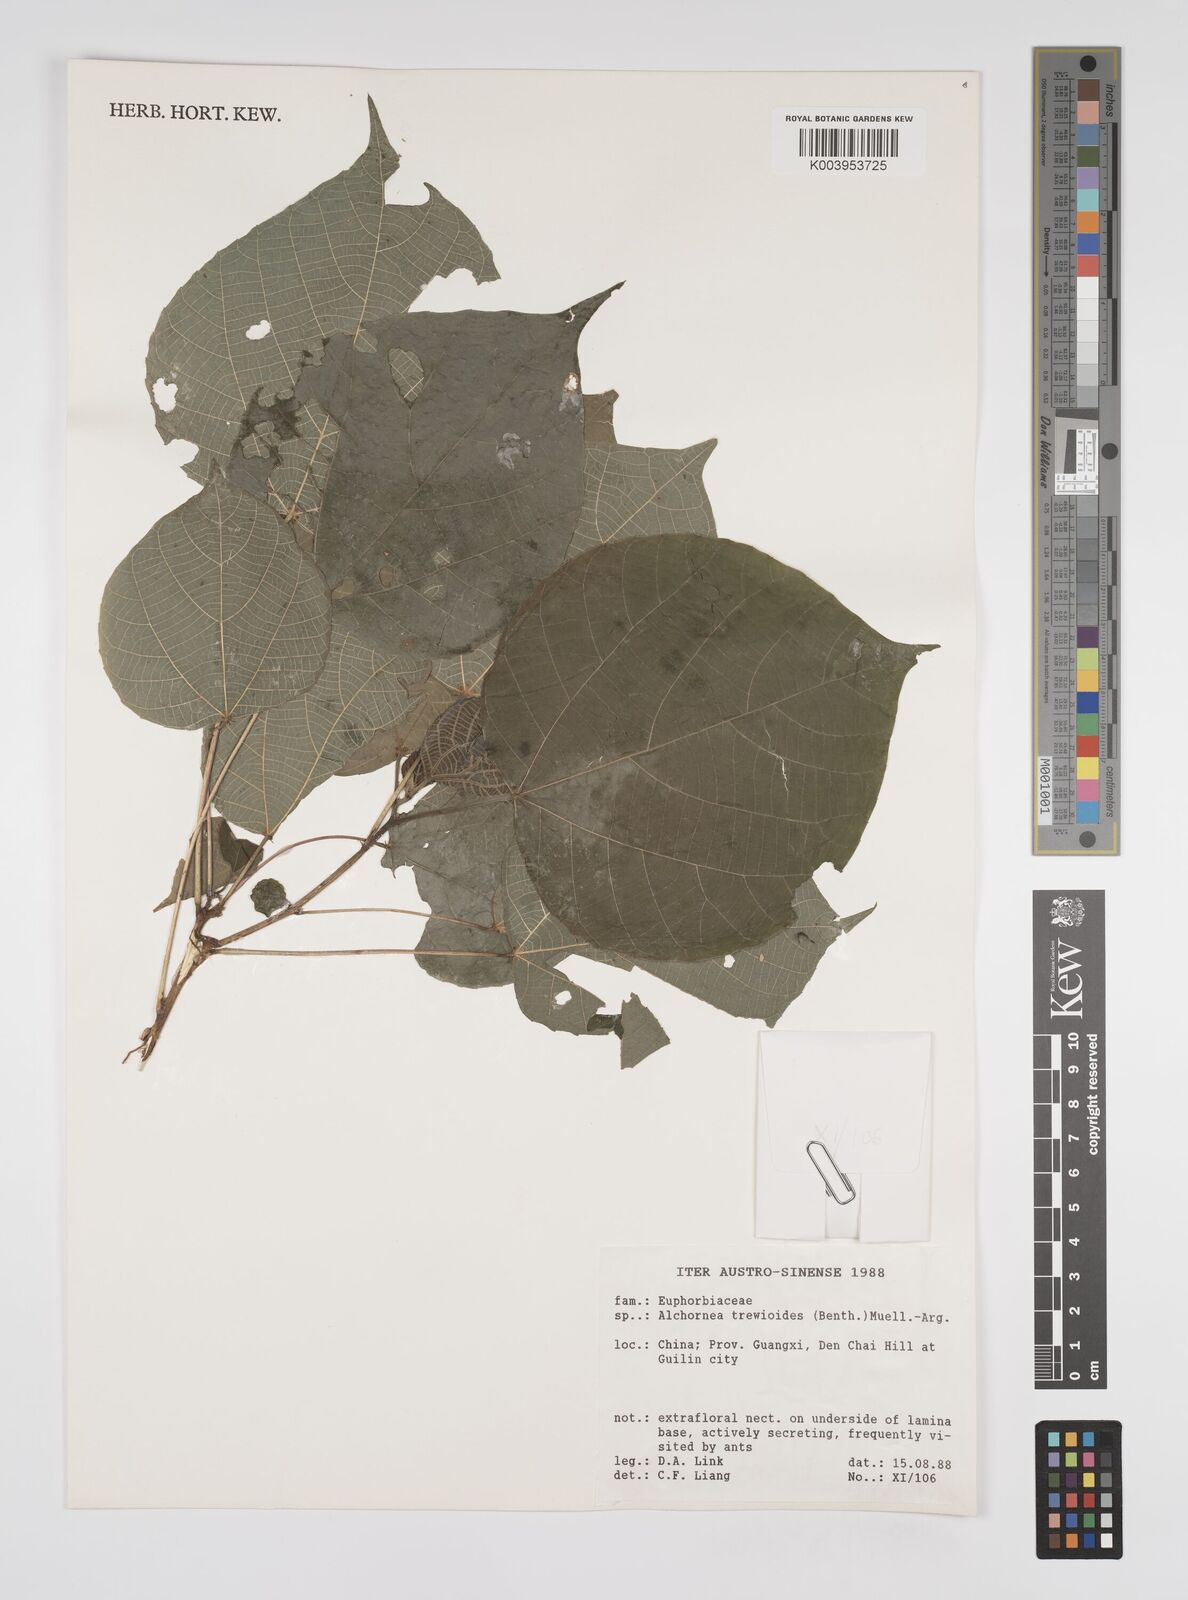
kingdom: Plantae
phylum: Tracheophyta
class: Magnoliopsida
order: Malpighiales
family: Euphorbiaceae
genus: Alchornea
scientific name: Alchornea trewioides
